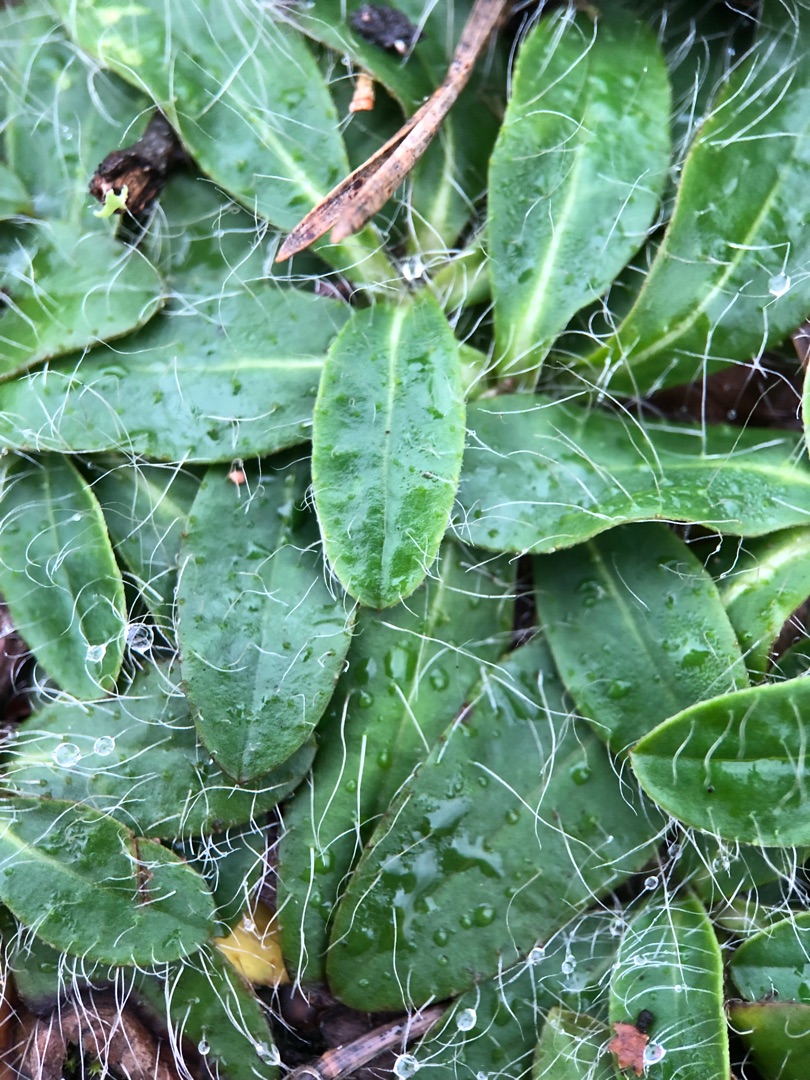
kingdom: Plantae
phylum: Tracheophyta
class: Magnoliopsida
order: Asterales
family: Asteraceae
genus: Pilosella
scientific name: Pilosella officinarum
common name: Håret høgeurt
